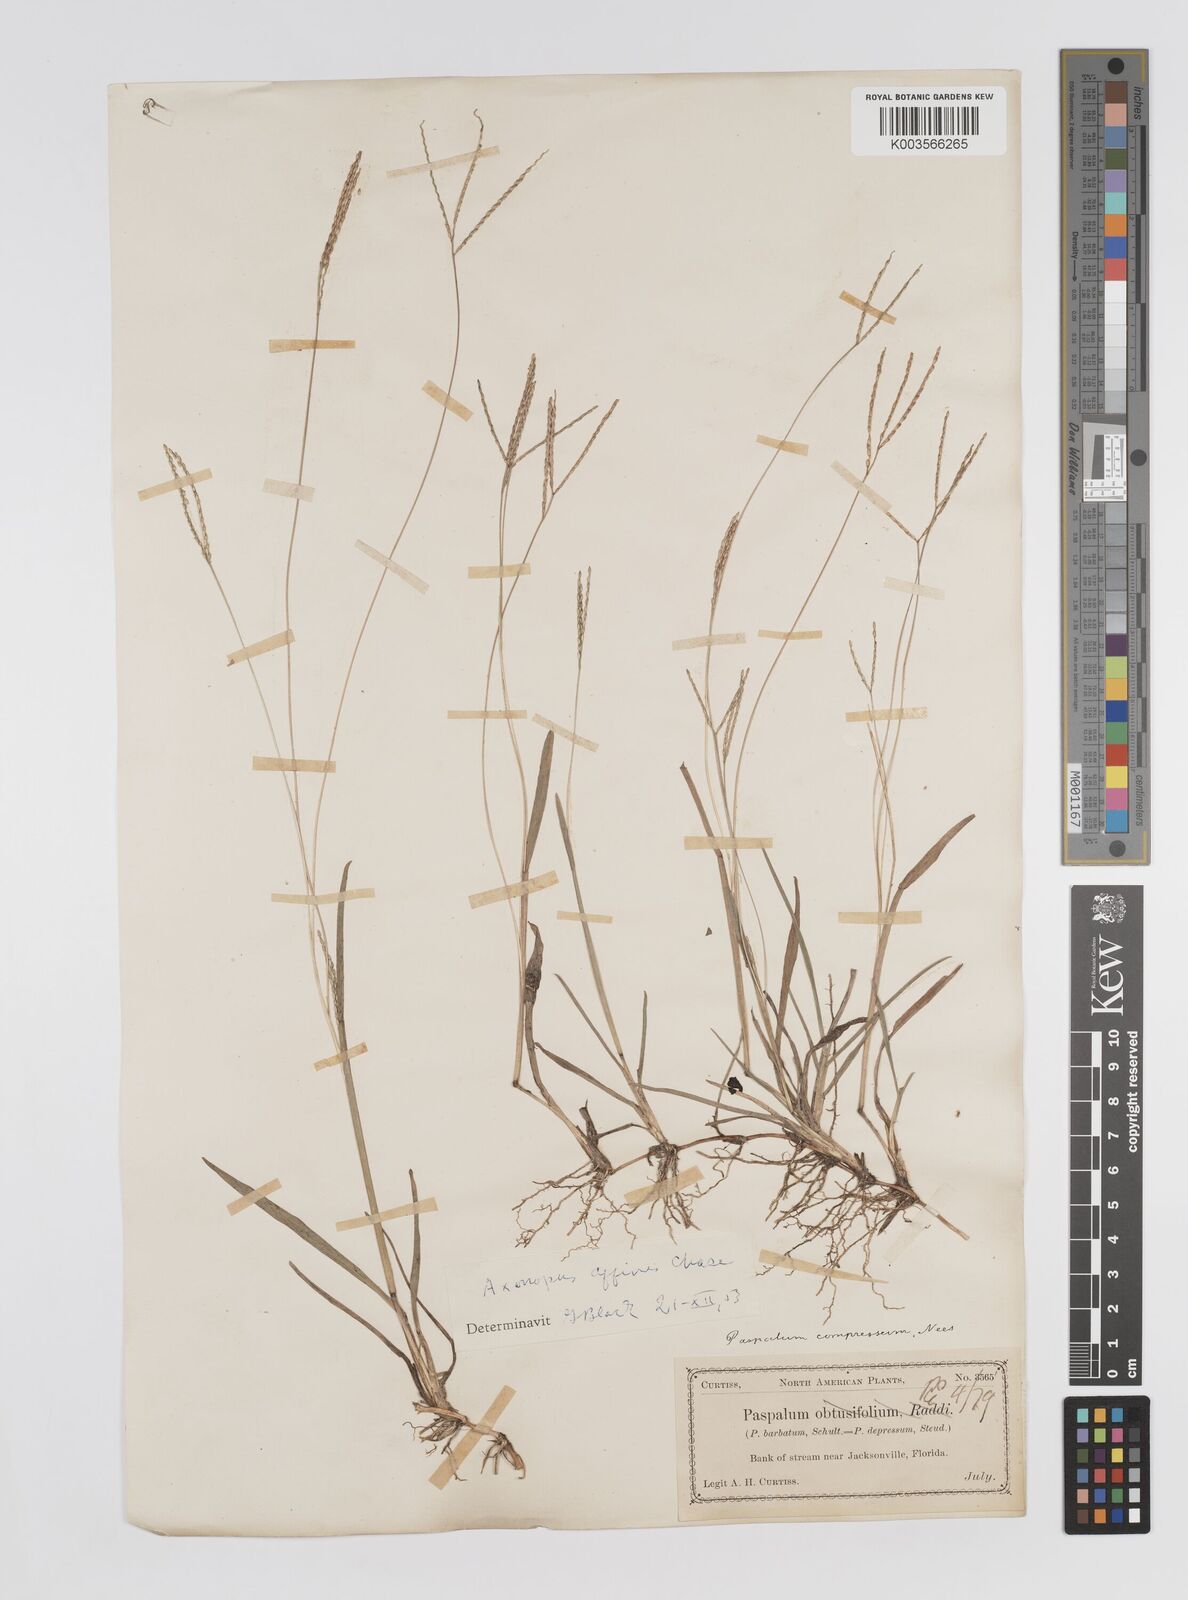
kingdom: Plantae
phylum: Tracheophyta
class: Liliopsida
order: Poales
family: Poaceae
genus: Axonopus
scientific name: Axonopus fissifolius
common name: Common carpetgrass
